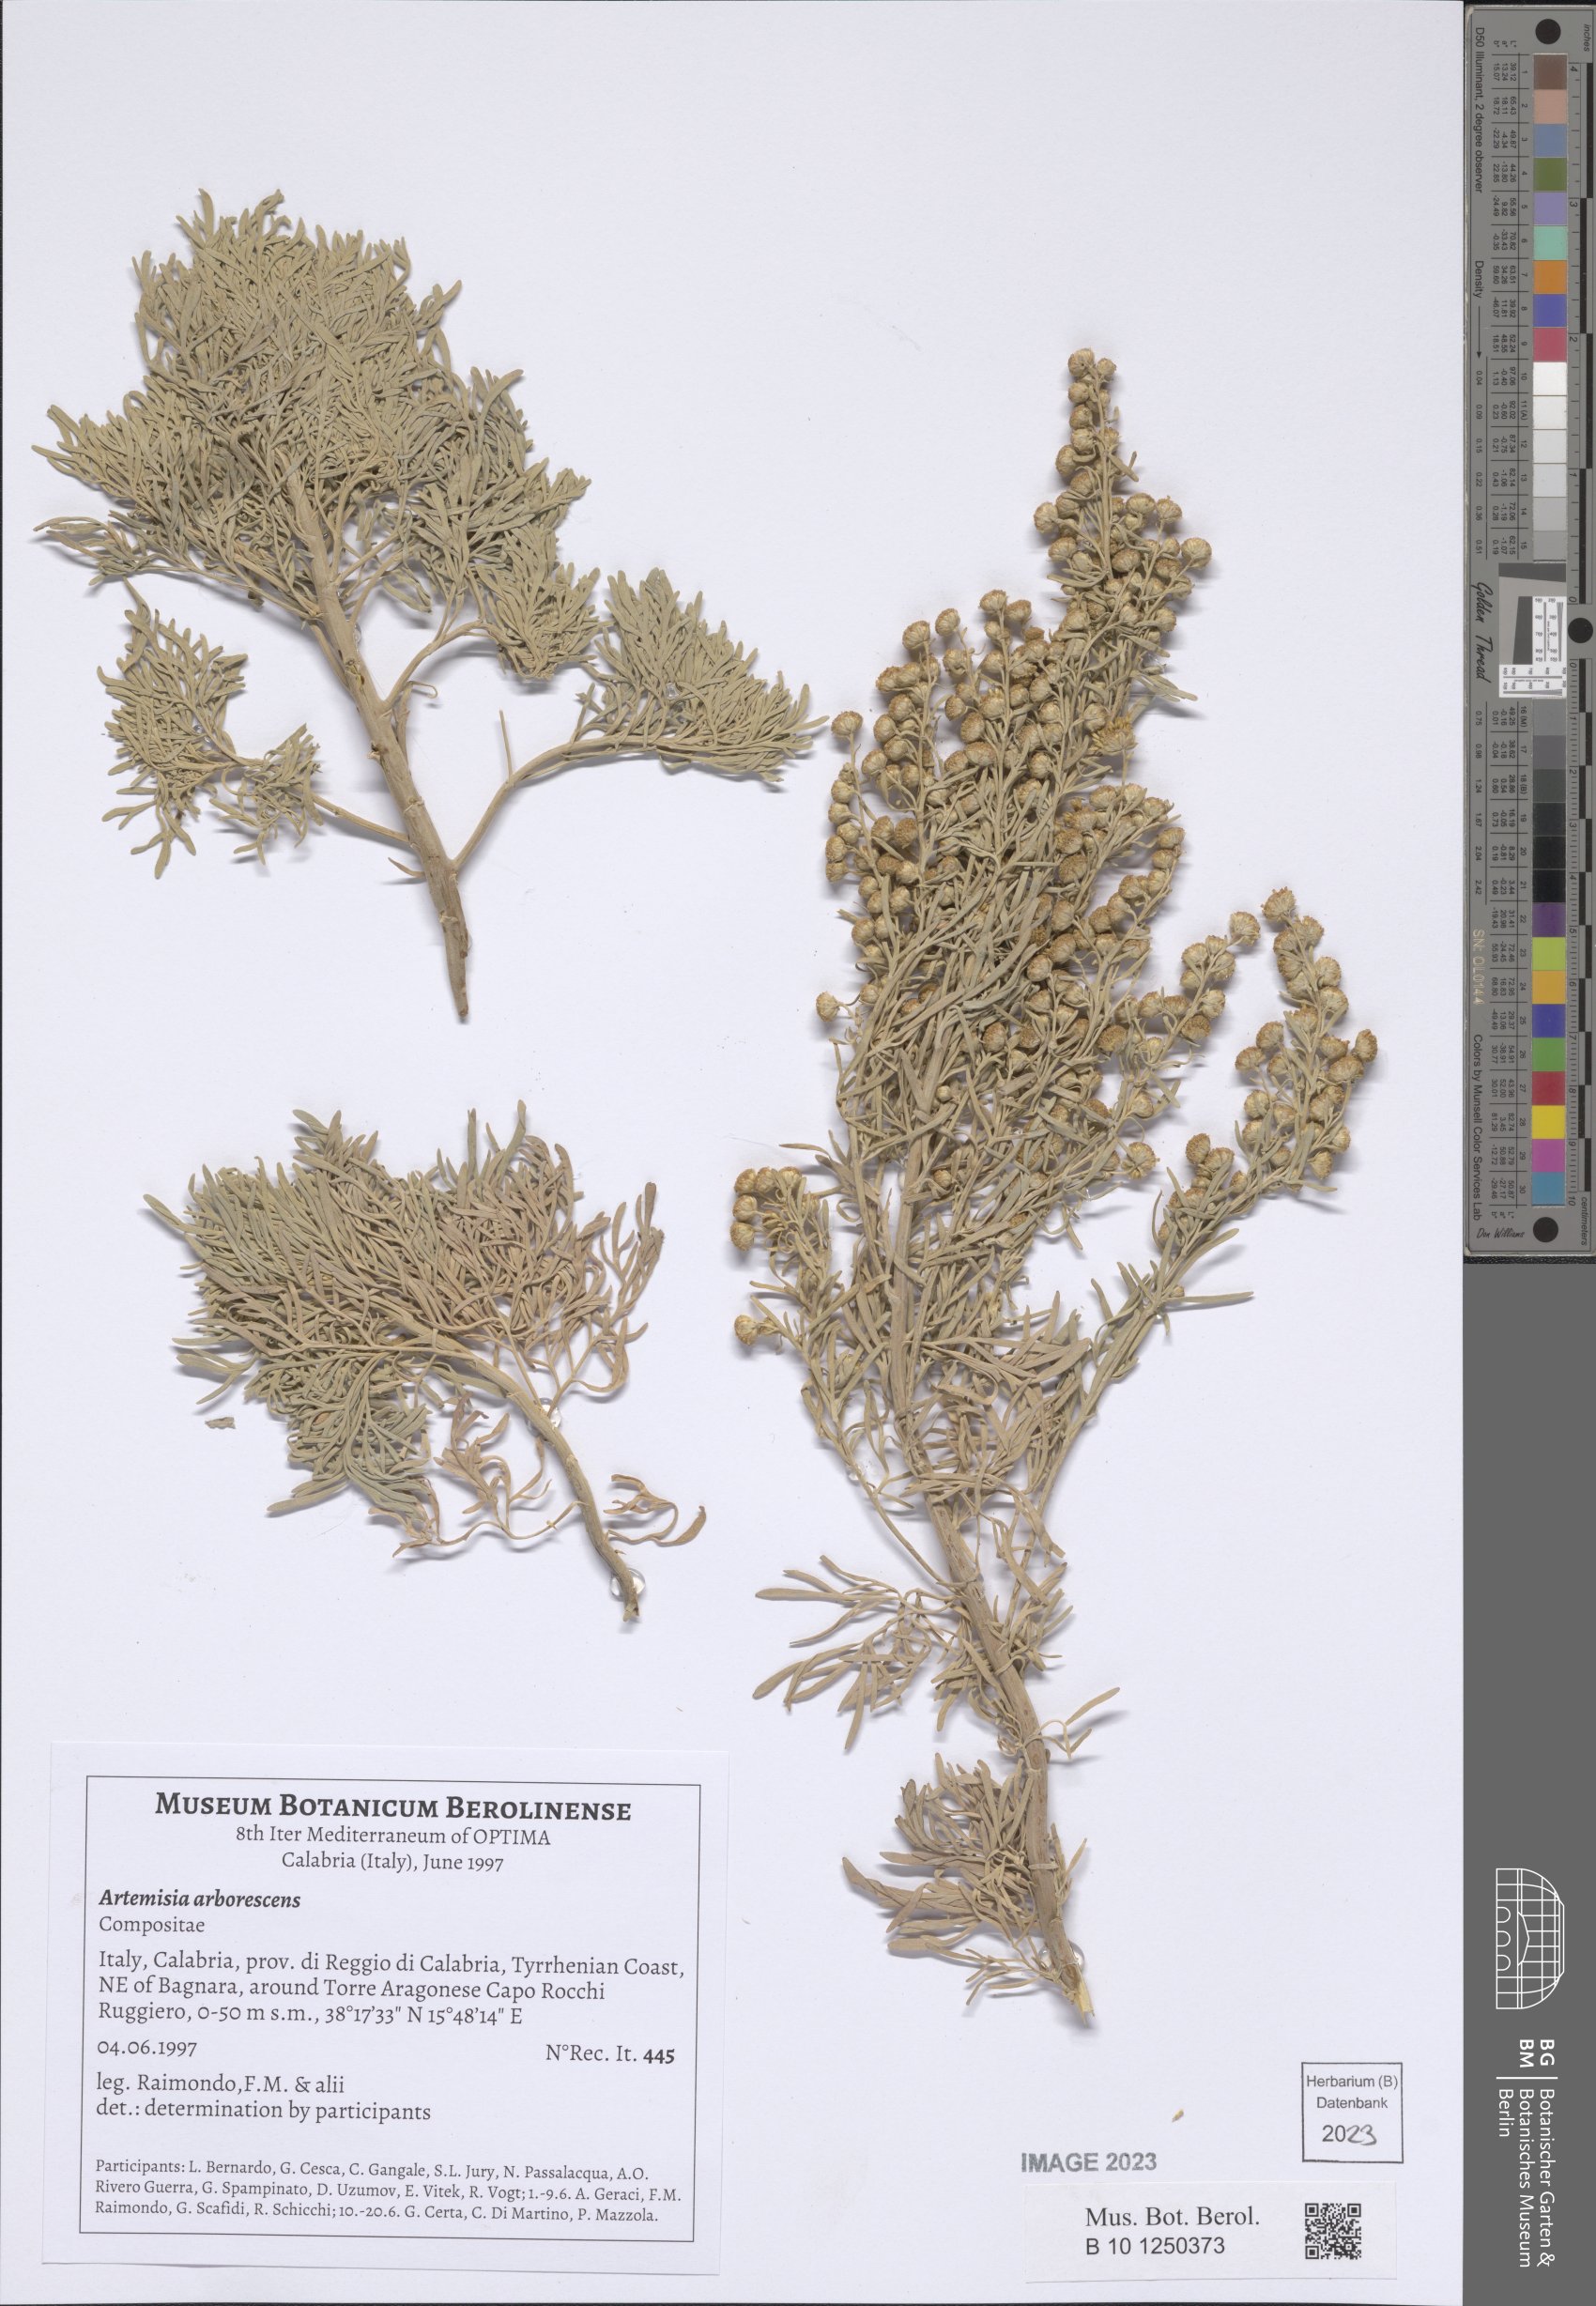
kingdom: Plantae
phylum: Tracheophyta
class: Magnoliopsida
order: Asterales
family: Asteraceae
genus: Artemisia
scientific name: Artemisia arborescens
